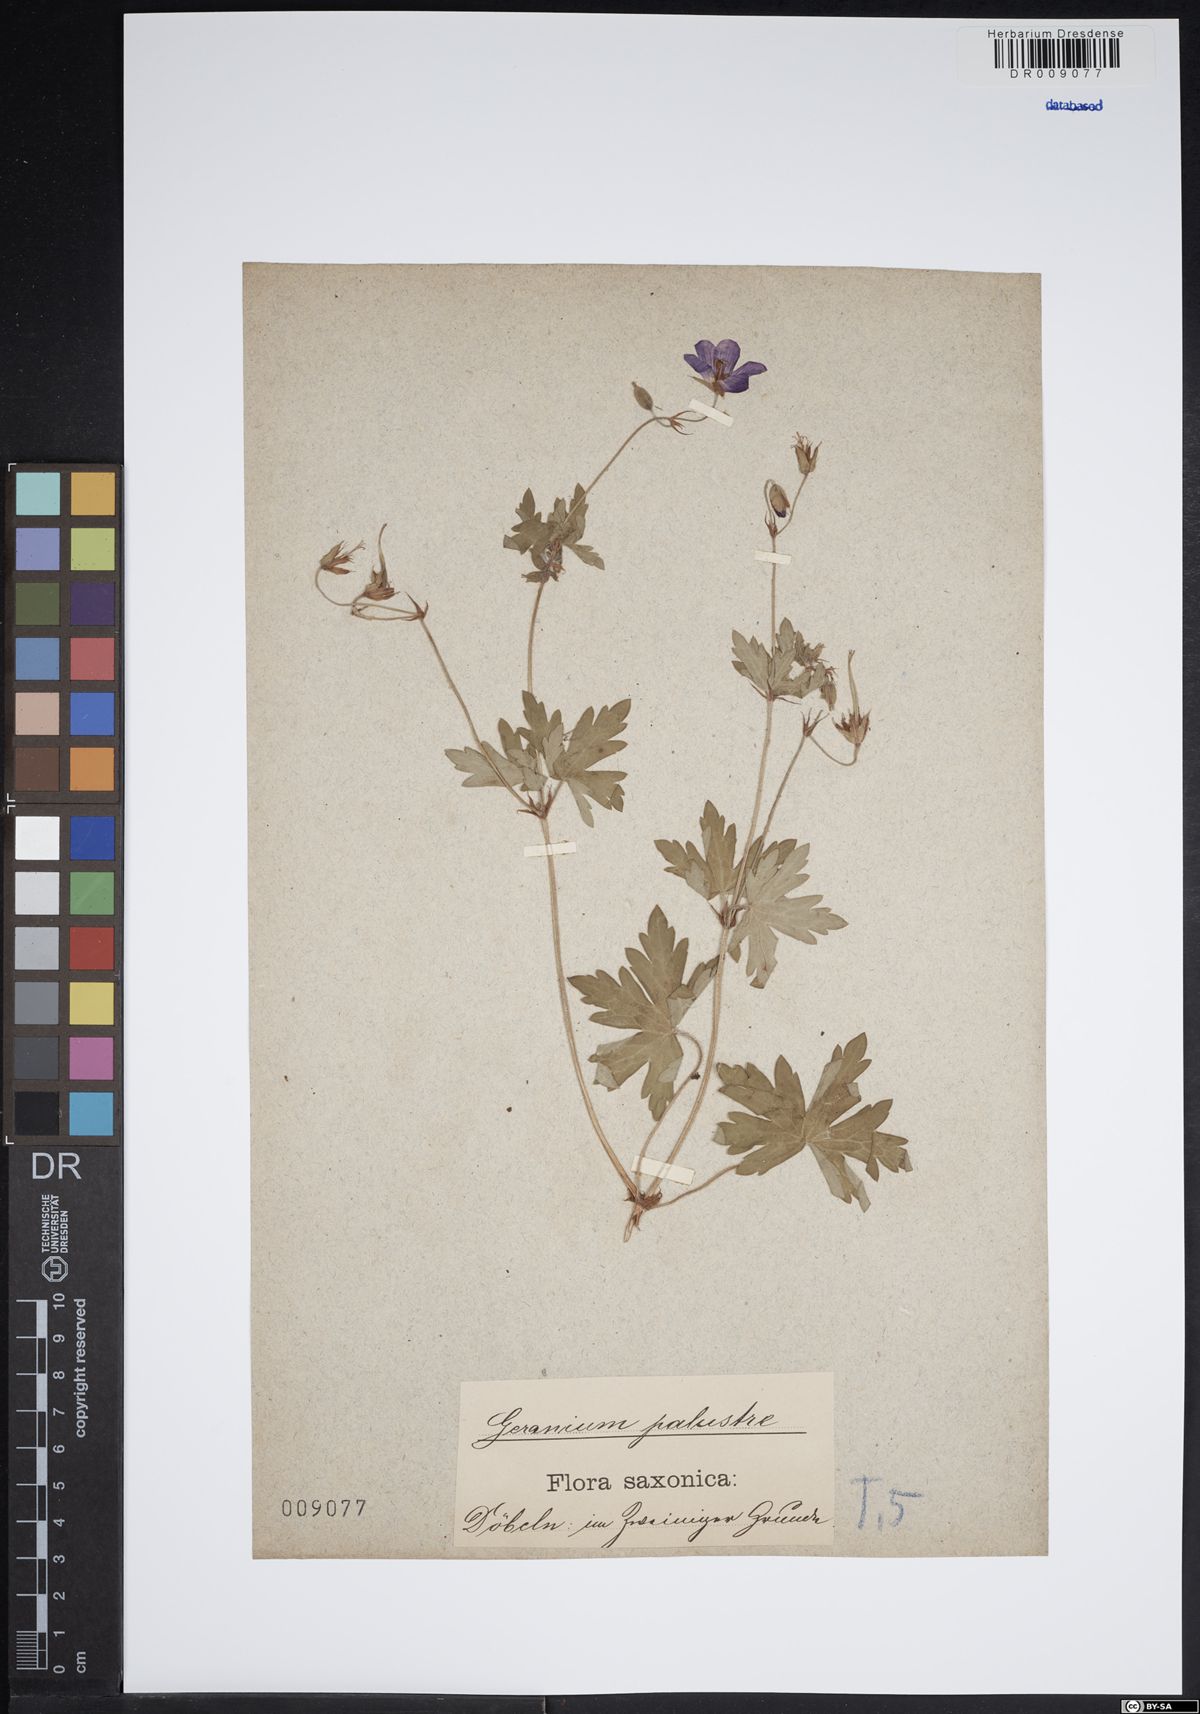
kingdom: Plantae
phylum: Tracheophyta
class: Magnoliopsida
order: Geraniales
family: Geraniaceae
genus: Geranium
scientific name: Geranium palustre
